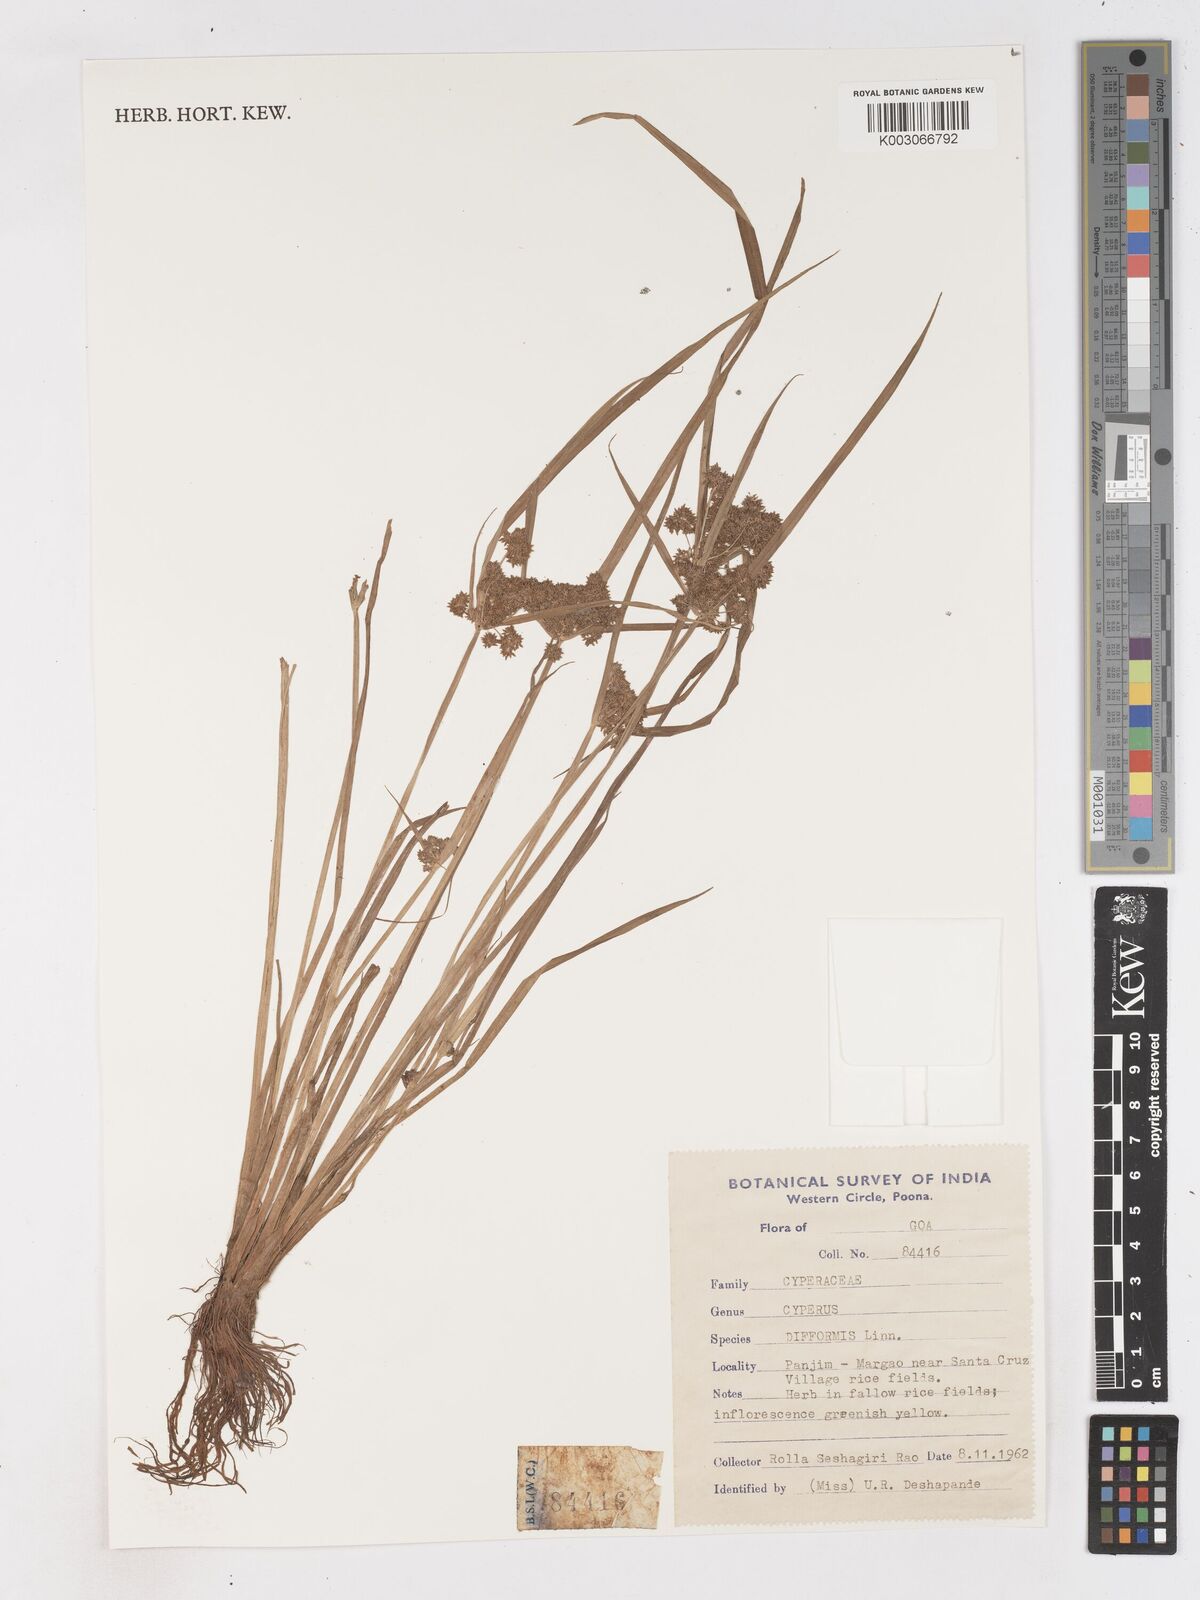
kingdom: Plantae
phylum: Tracheophyta
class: Liliopsida
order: Poales
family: Cyperaceae
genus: Cyperus
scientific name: Cyperus difformis
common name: Variable flatsedge
